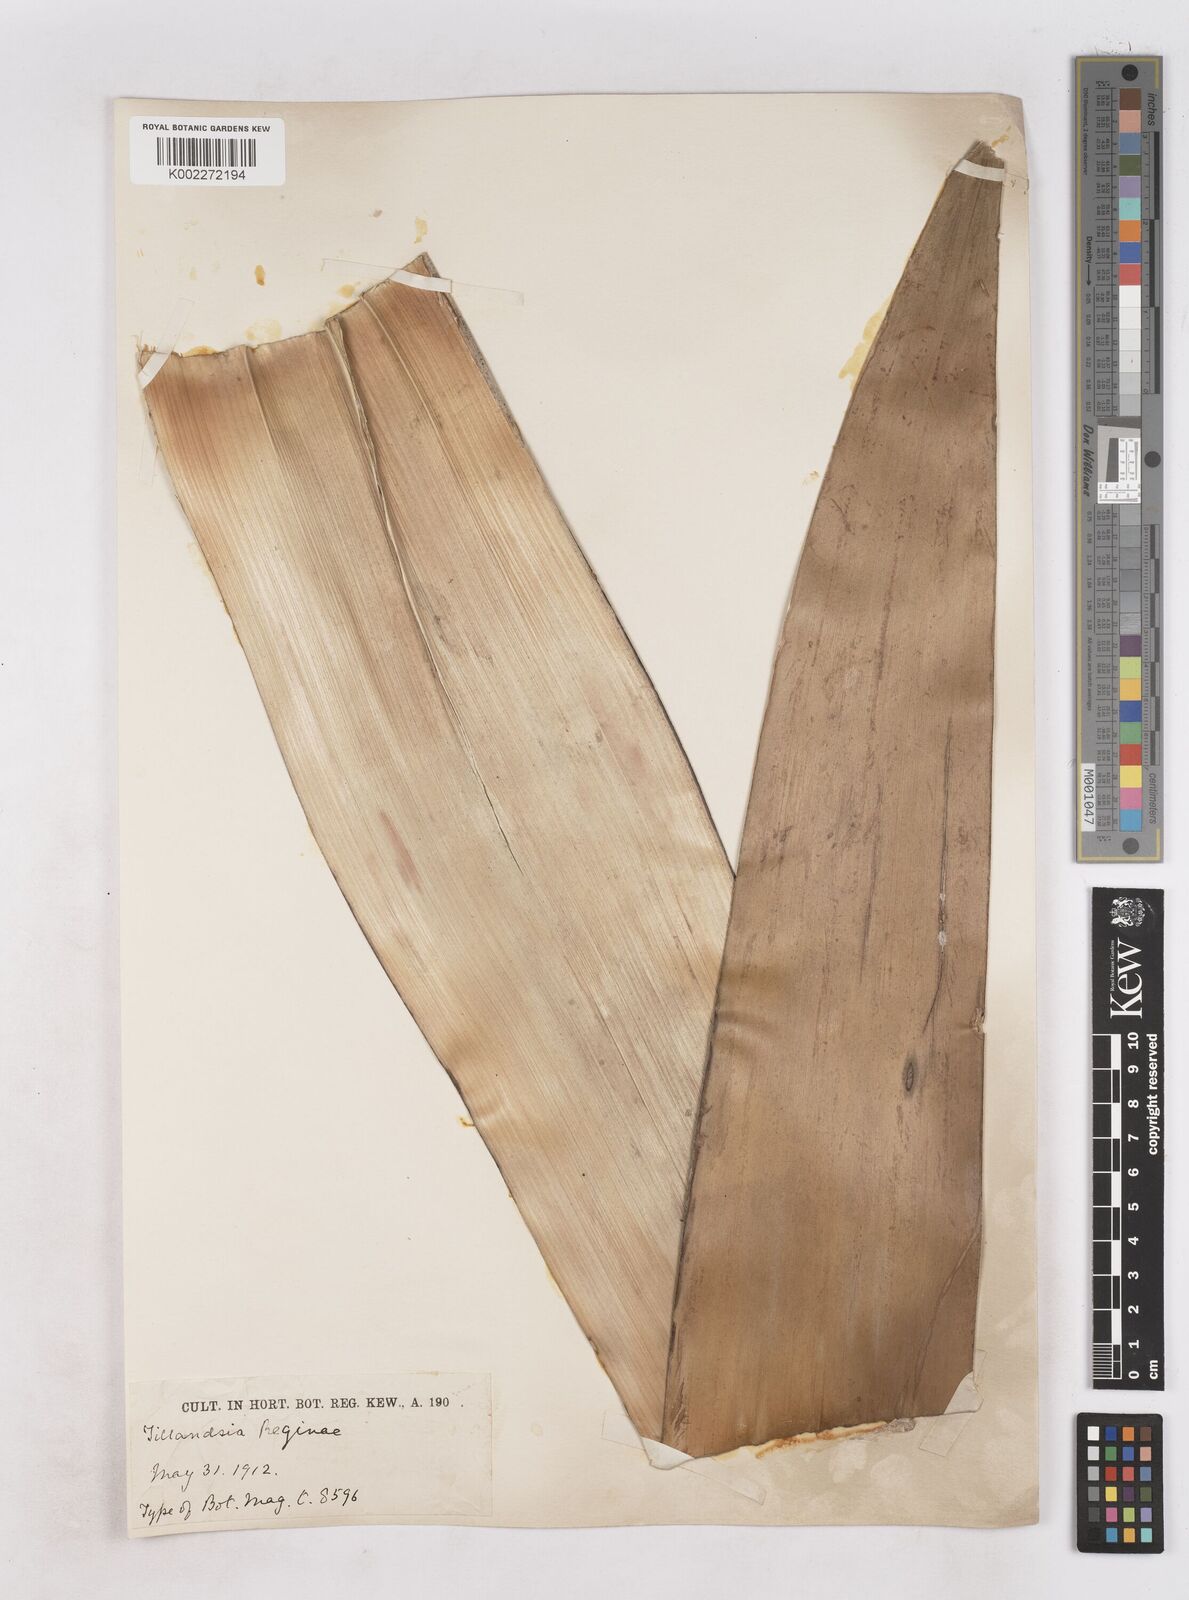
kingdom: Plantae
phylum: Tracheophyta
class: Liliopsida
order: Poales
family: Bromeliaceae
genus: Alcantarea
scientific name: Alcantarea regina
